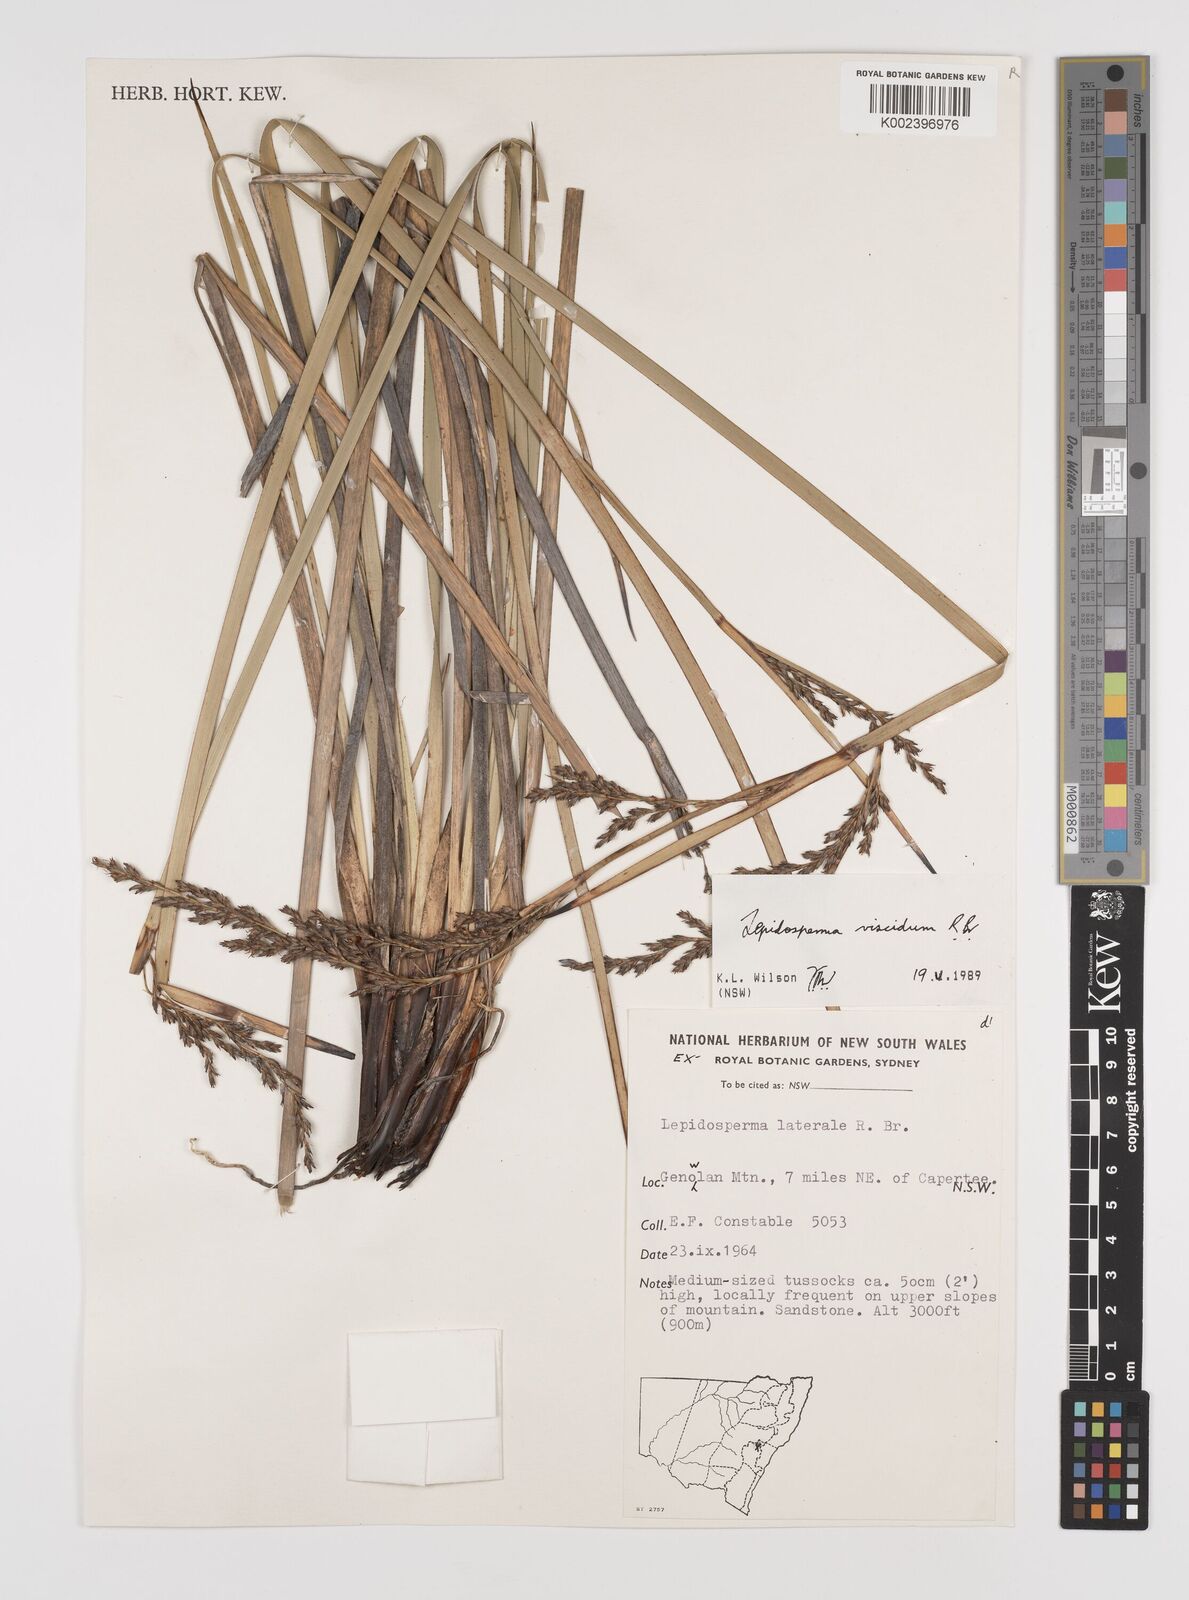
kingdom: Plantae
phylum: Tracheophyta
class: Liliopsida
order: Poales
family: Cyperaceae
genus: Lepidosperma
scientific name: Lepidosperma viscidum
